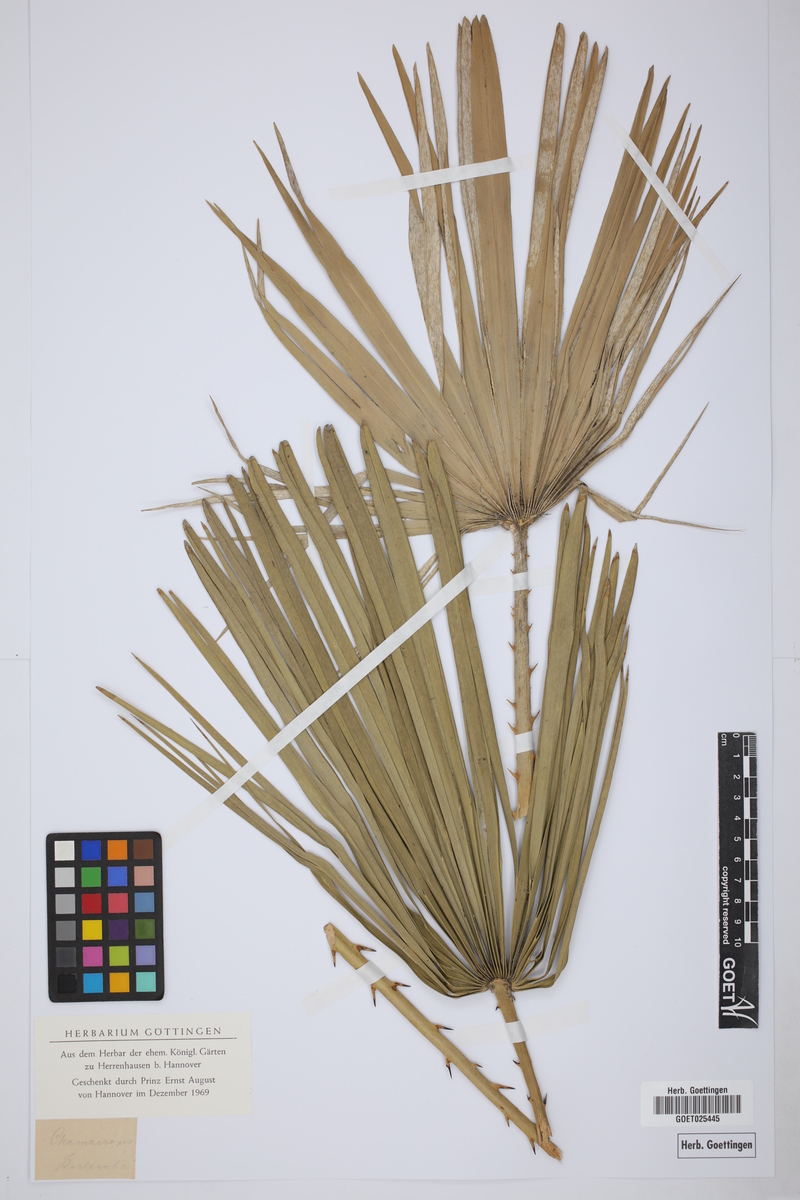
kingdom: Plantae
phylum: Tracheophyta
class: Liliopsida
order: Arecales
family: Arecaceae
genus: Chamaerops
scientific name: Chamaerops
